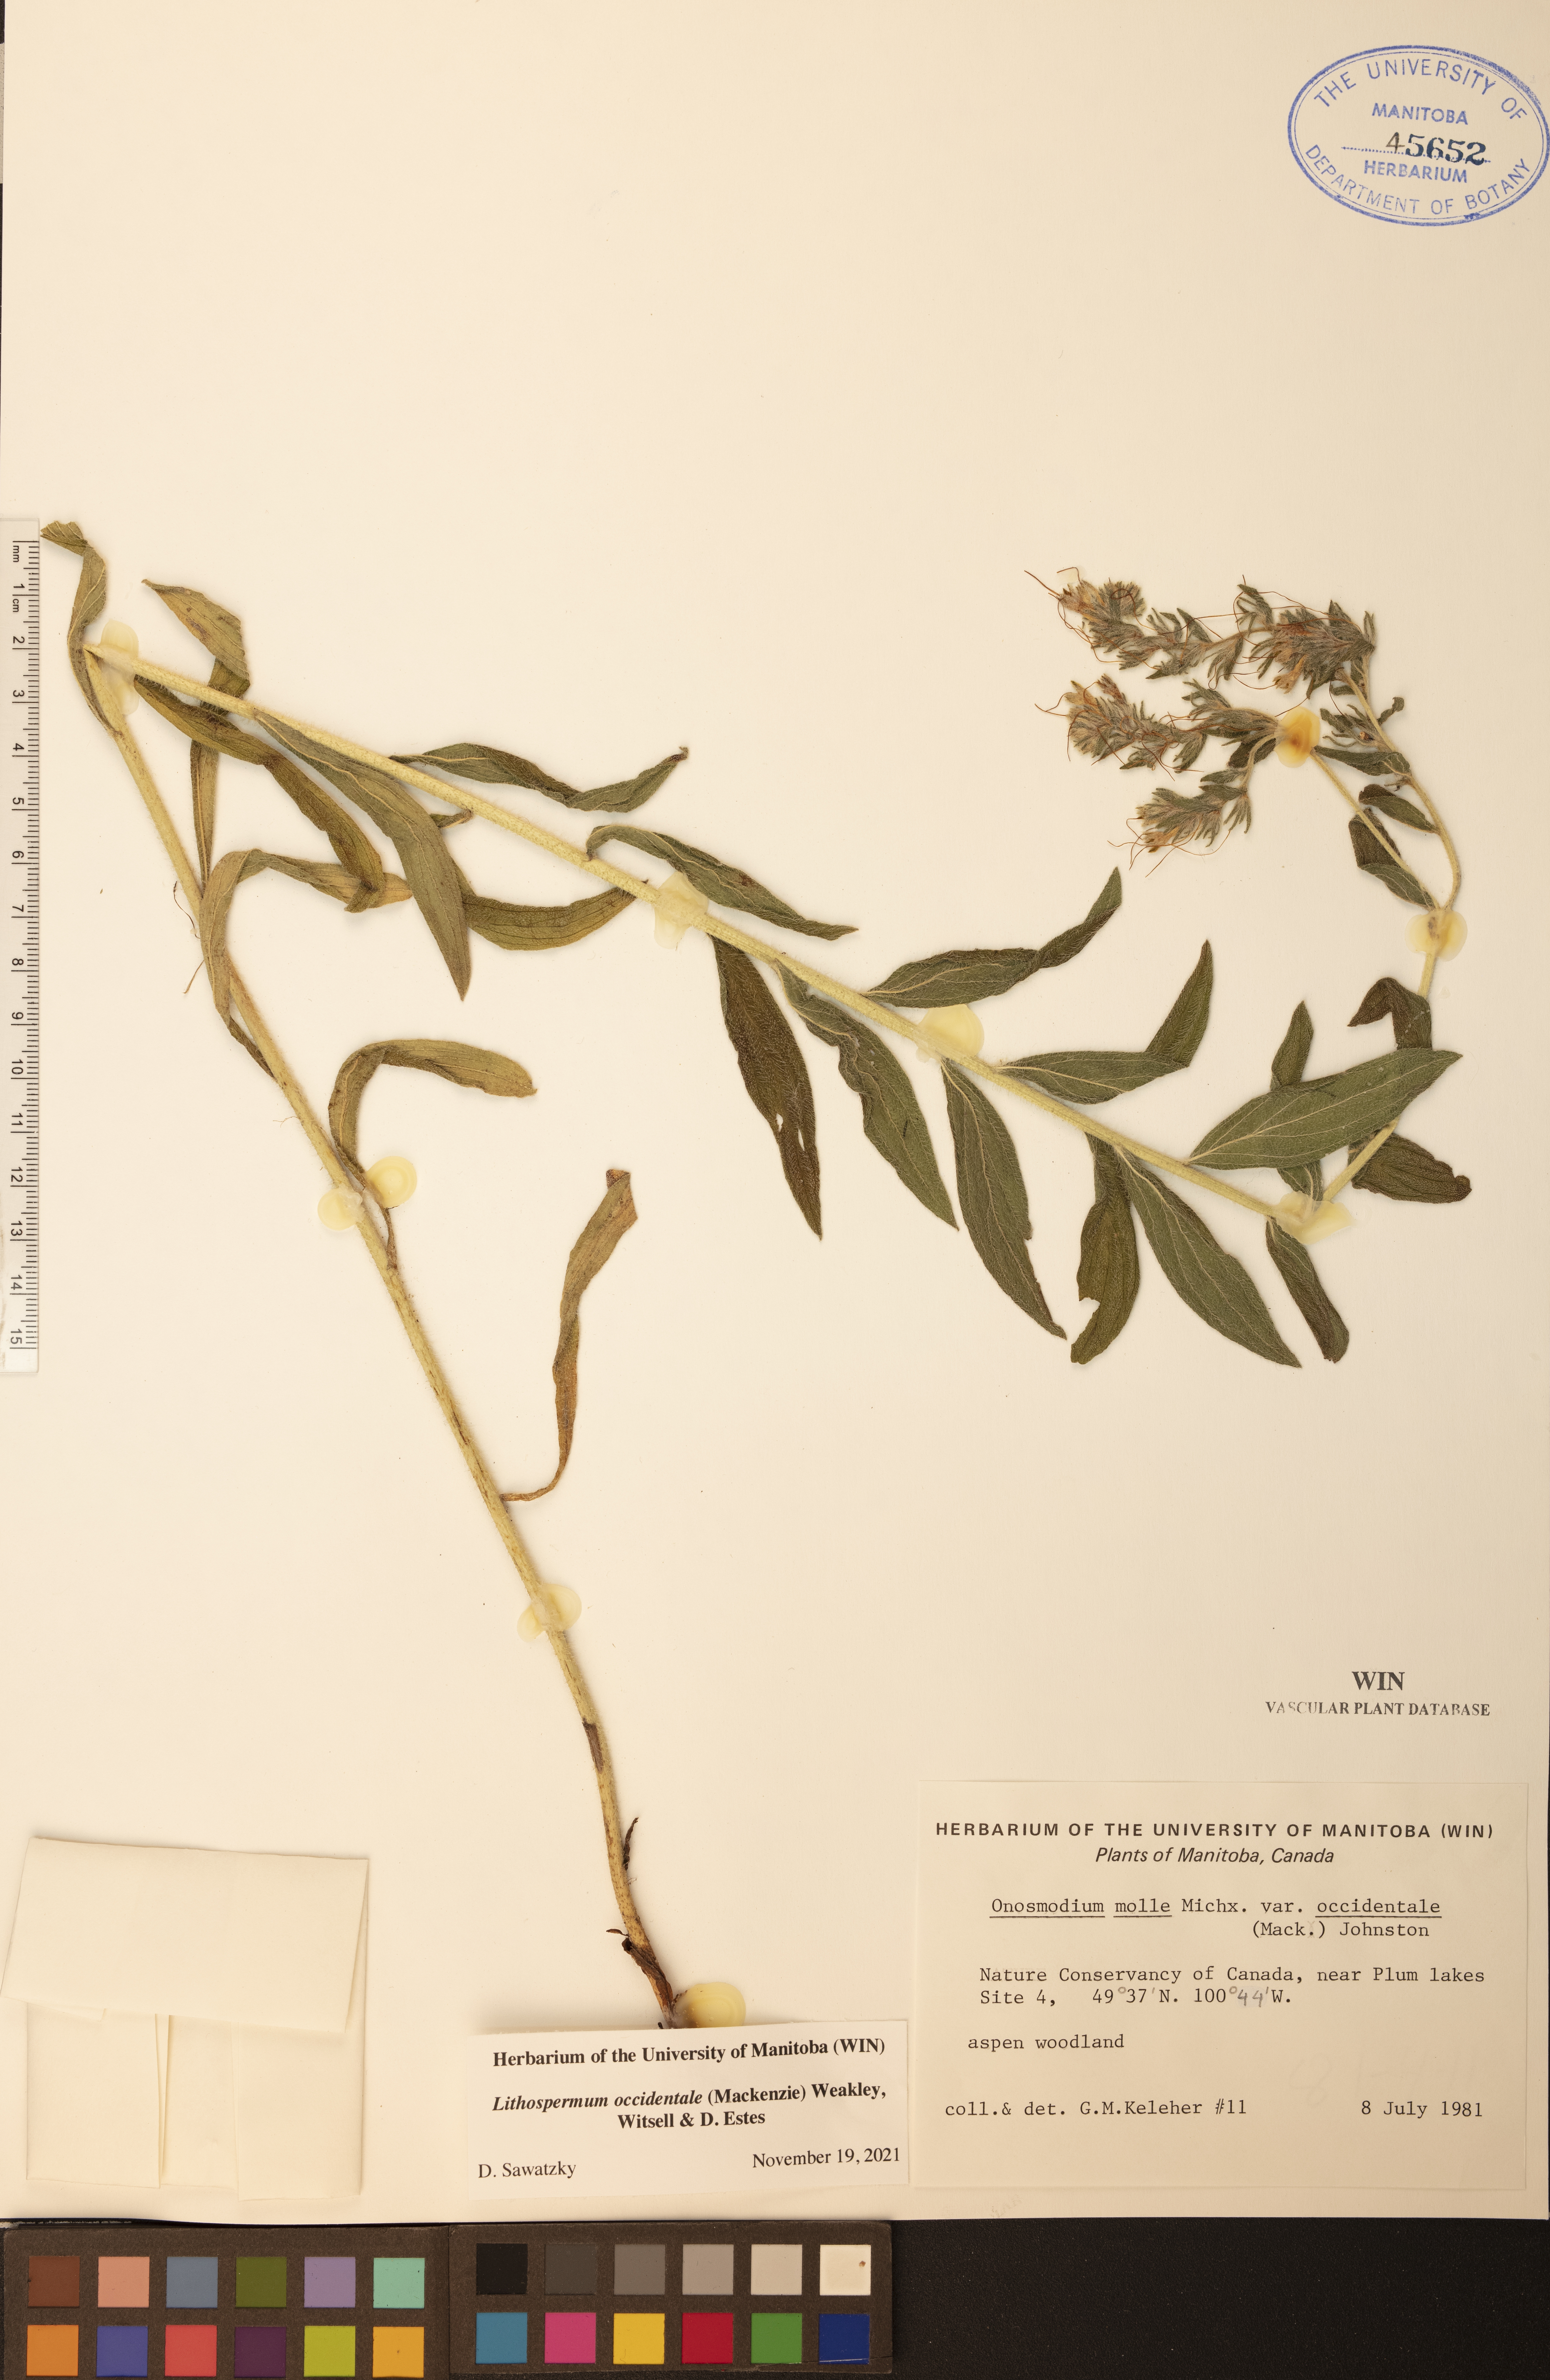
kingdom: Plantae
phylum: Tracheophyta
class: Magnoliopsida
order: Boraginales
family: Boraginaceae
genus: Lithospermum
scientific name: Lithospermum occidentale
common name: Western false gromwell
